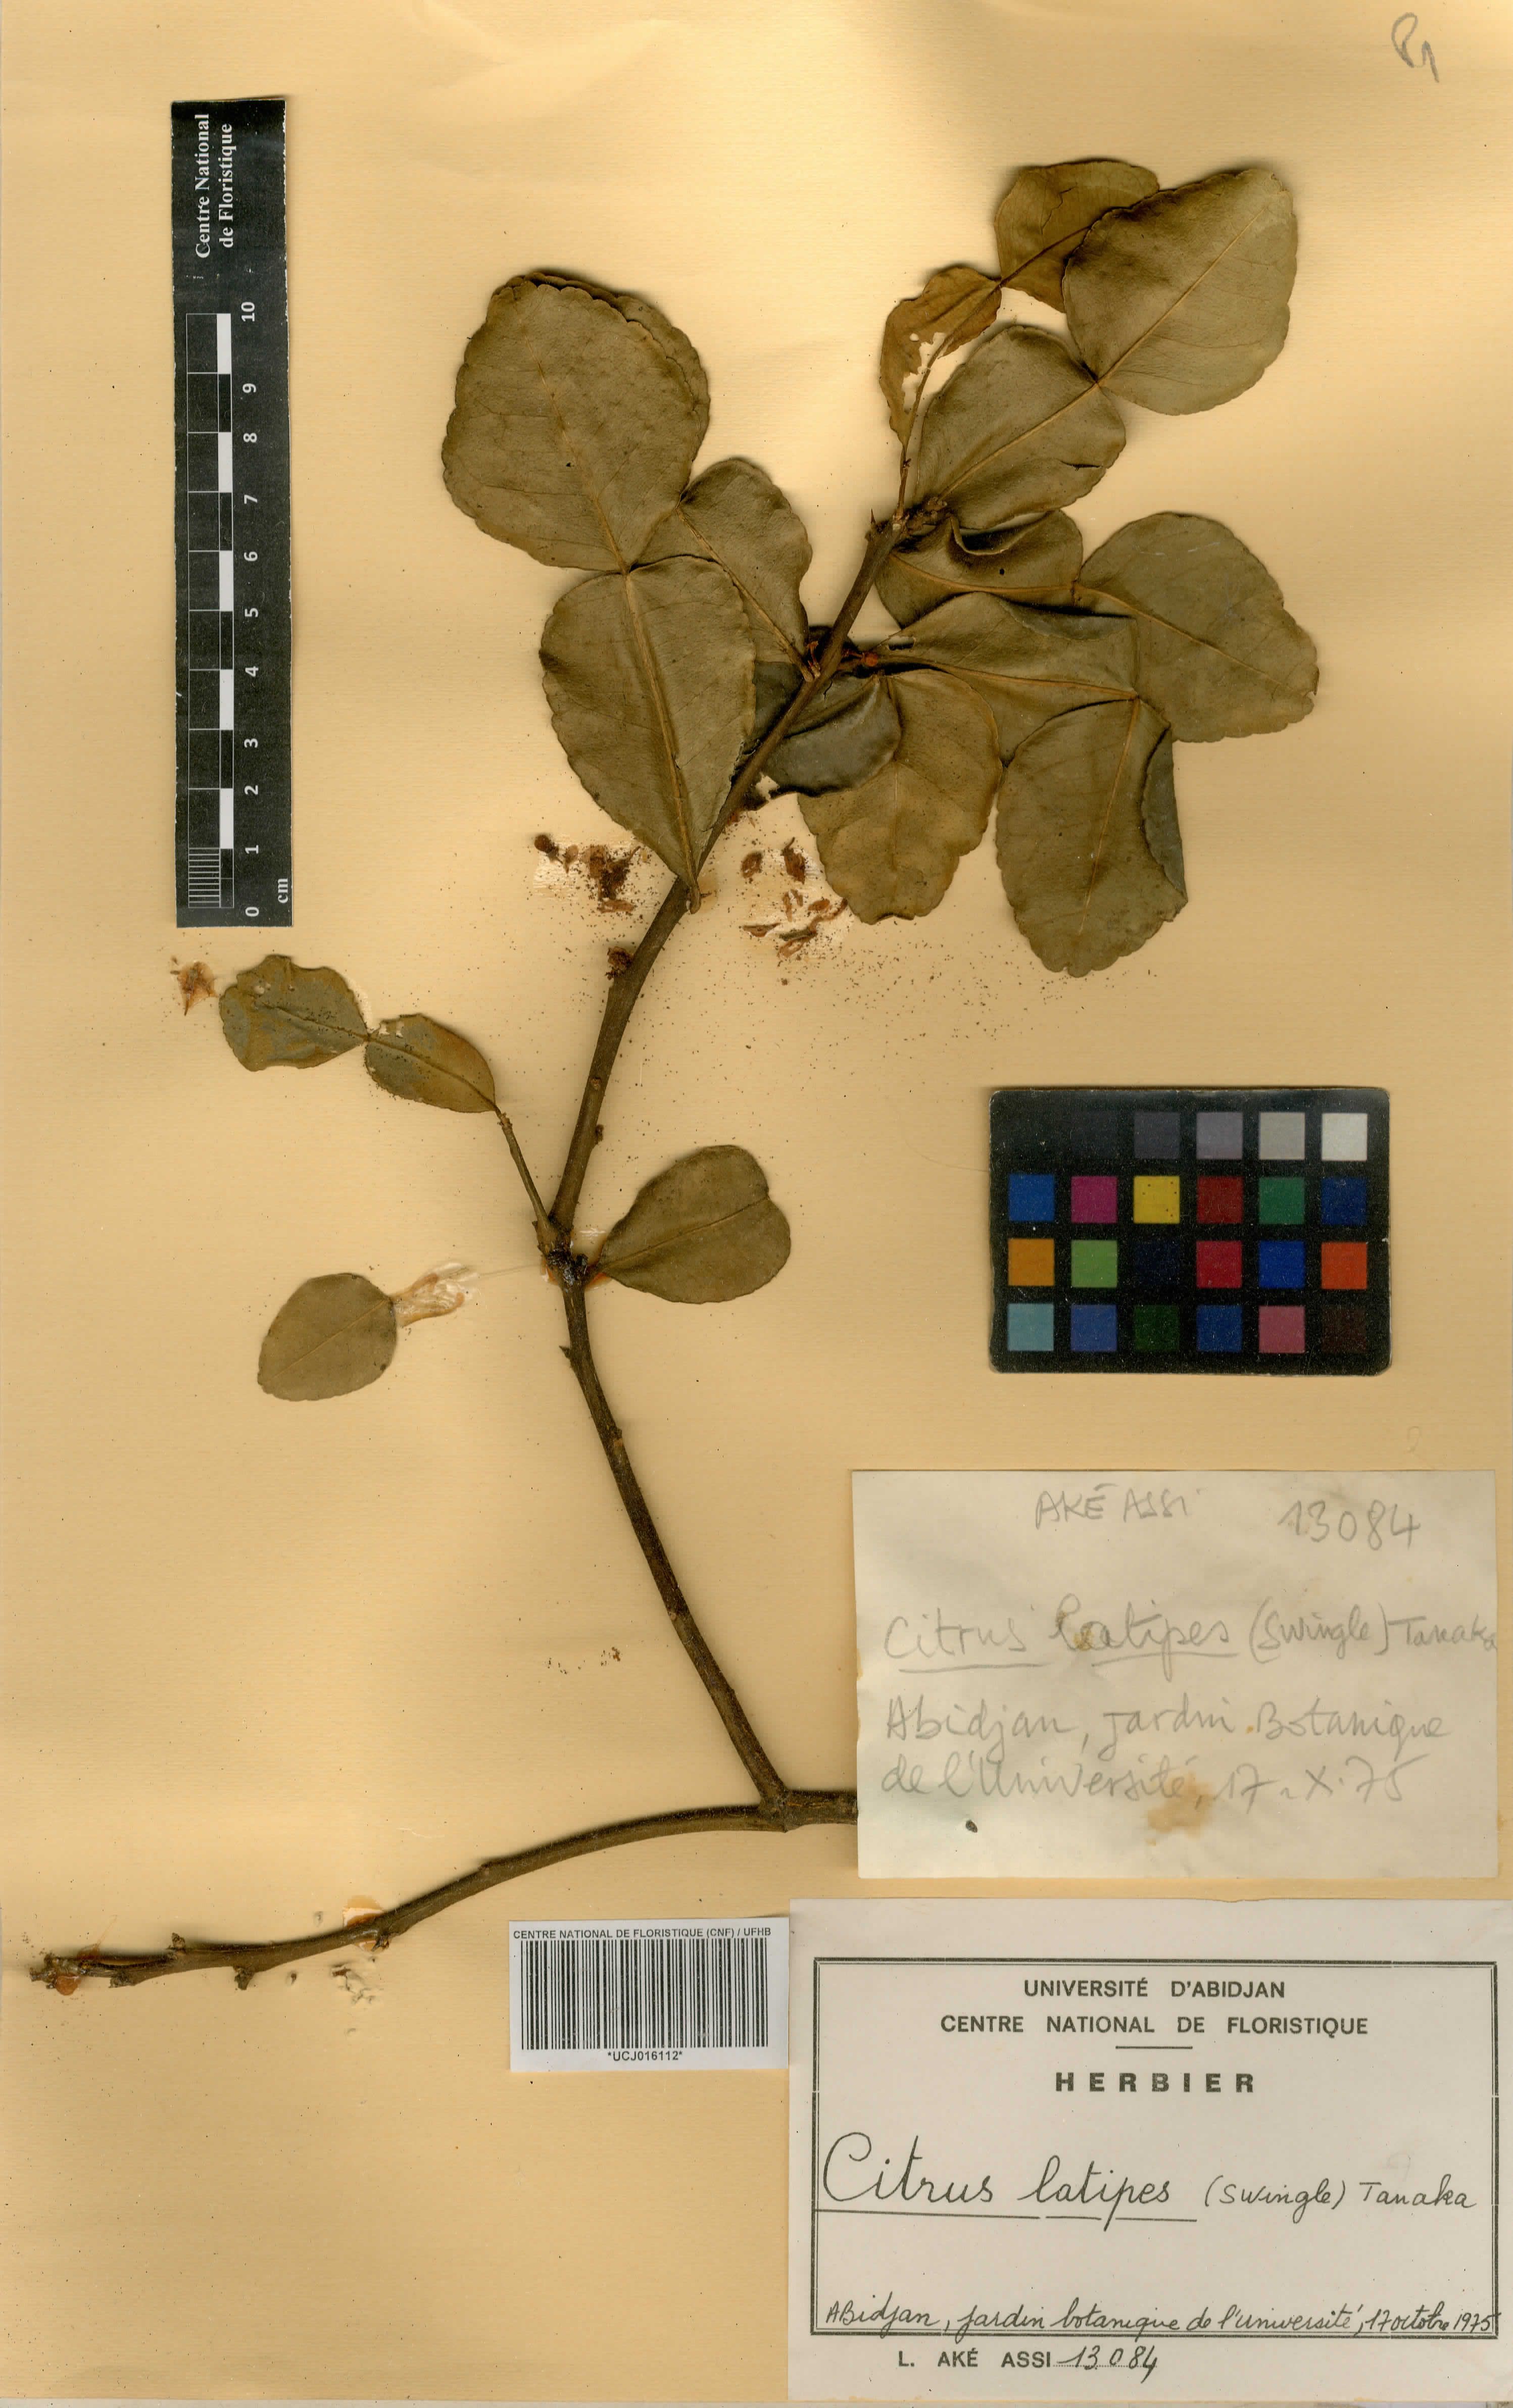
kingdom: Plantae
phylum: Tracheophyta
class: Magnoliopsida
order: Sapindales
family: Rutaceae
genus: Citrus
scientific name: Citrus latipes
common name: Khasi-papeda
